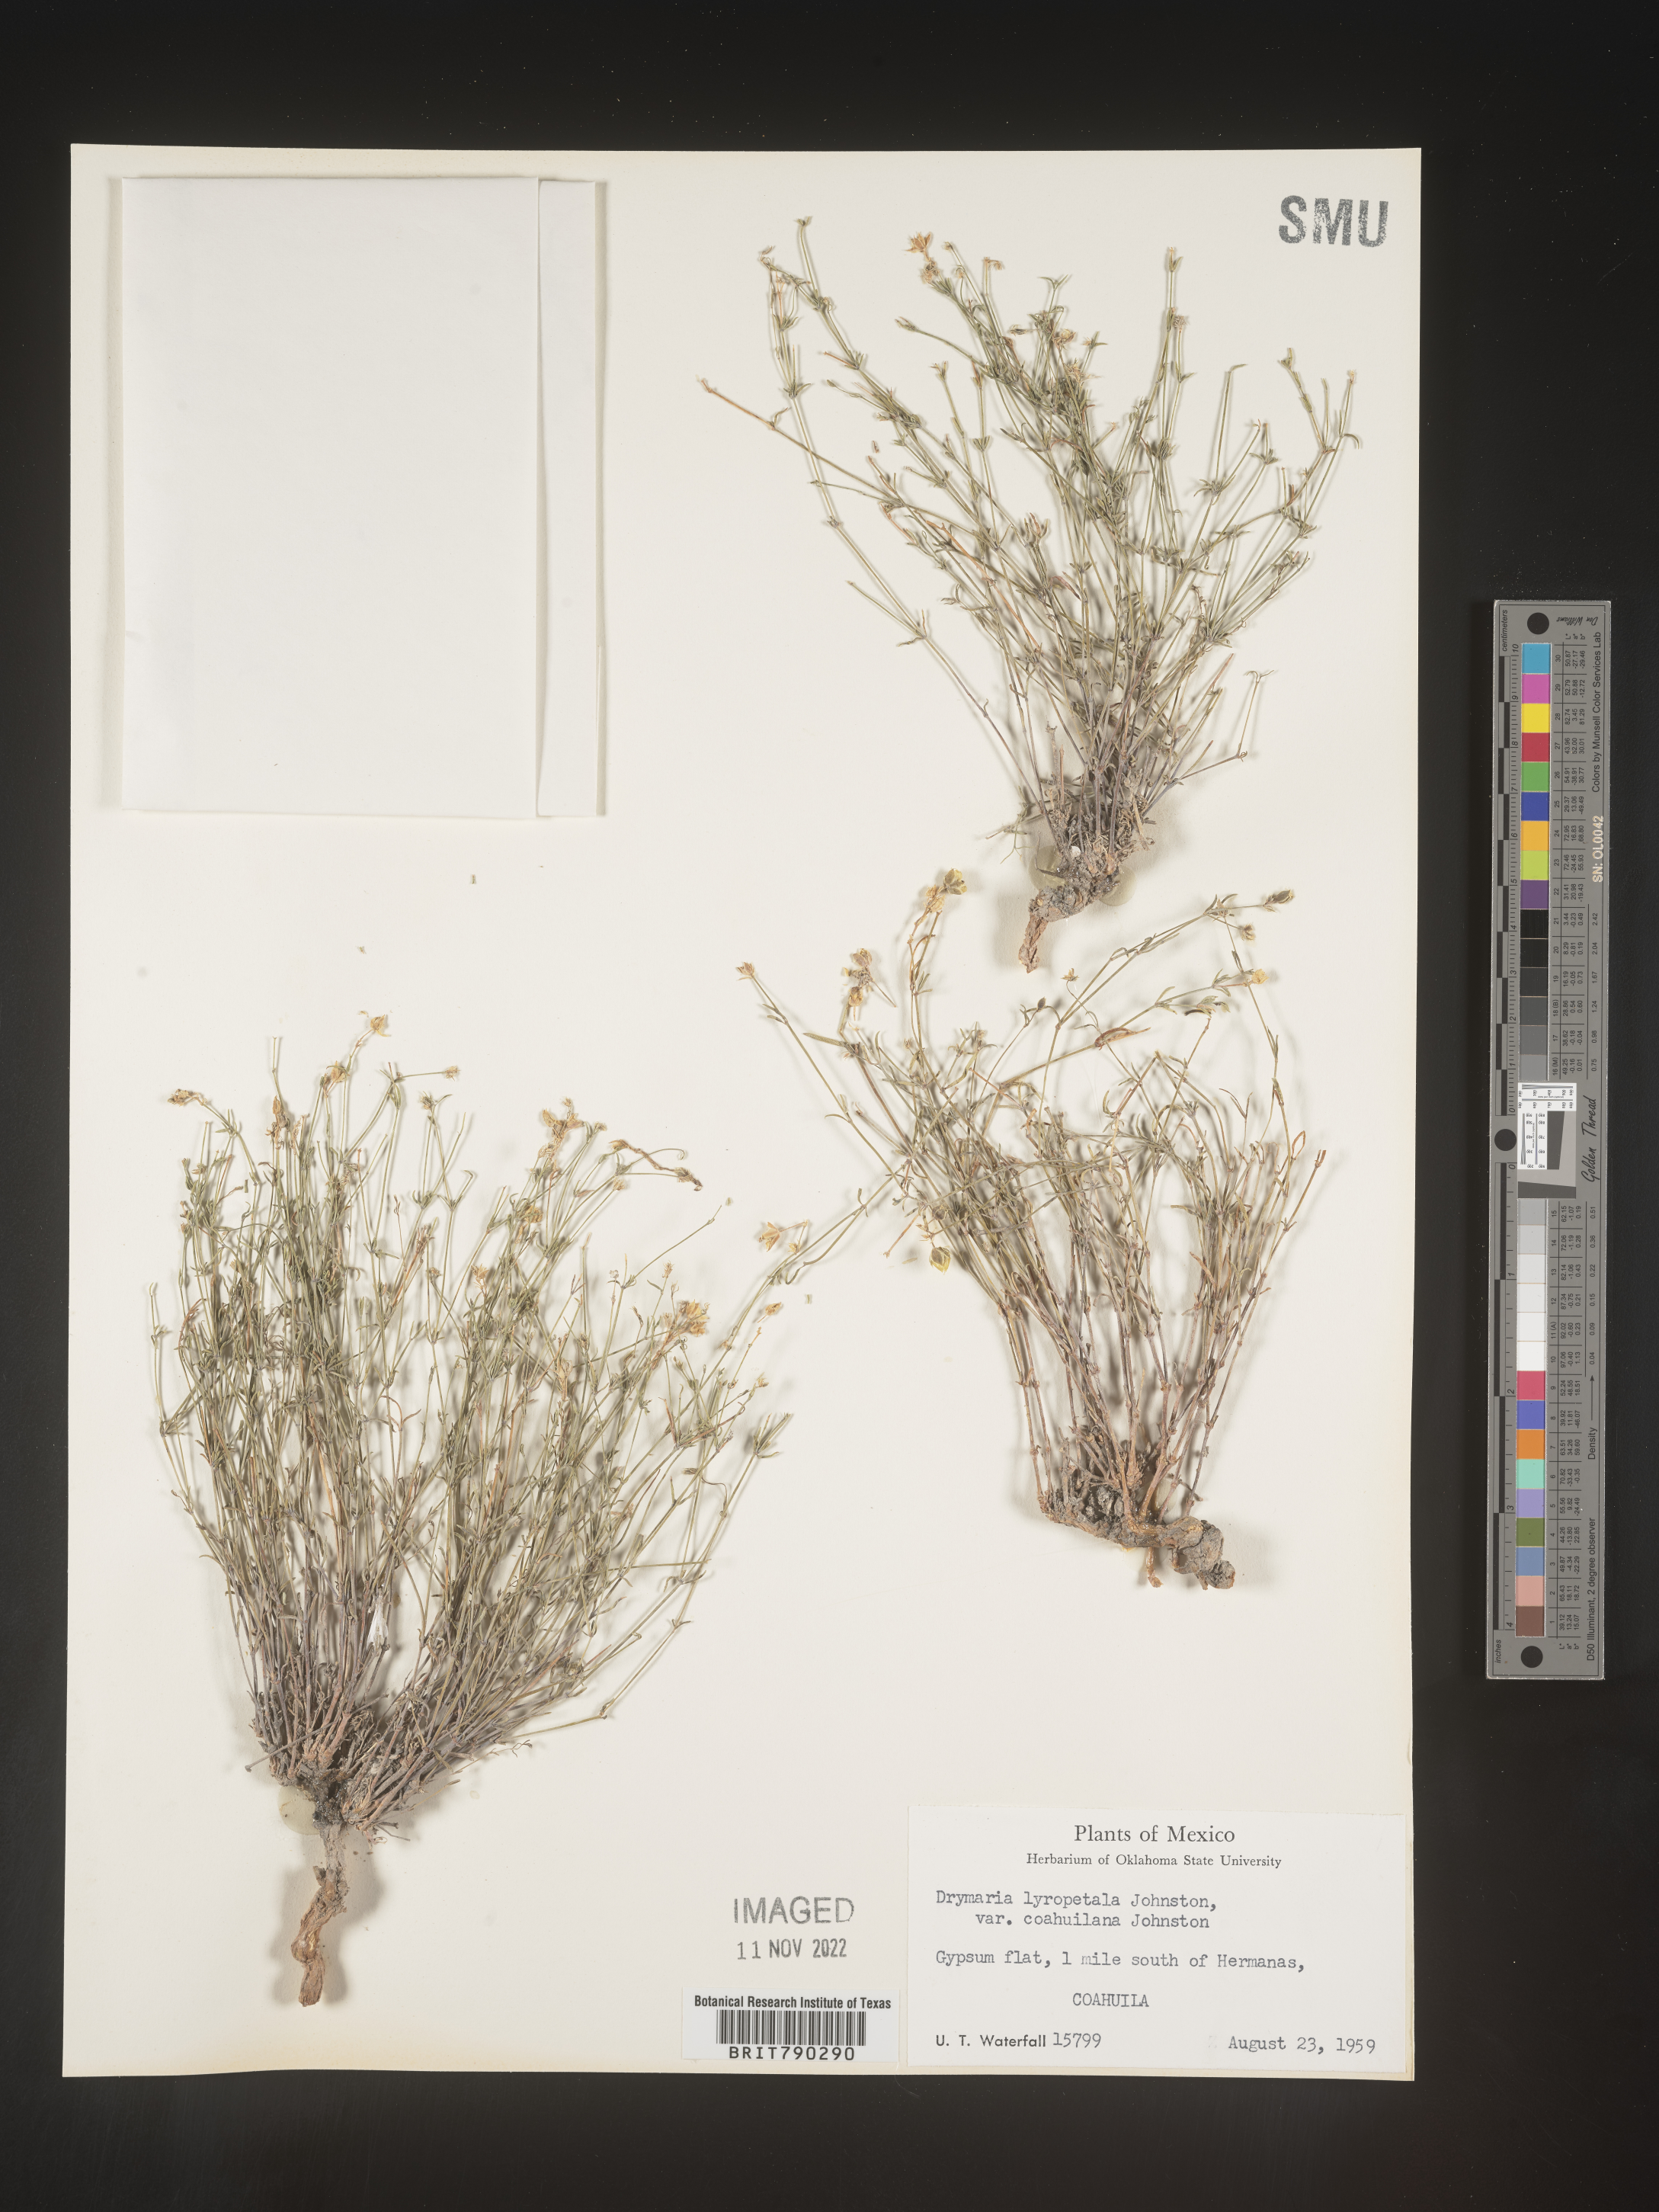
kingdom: Plantae
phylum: Tracheophyta
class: Magnoliopsida
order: Caryophyllales
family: Caryophyllaceae
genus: Drymaria
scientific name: Drymaria
